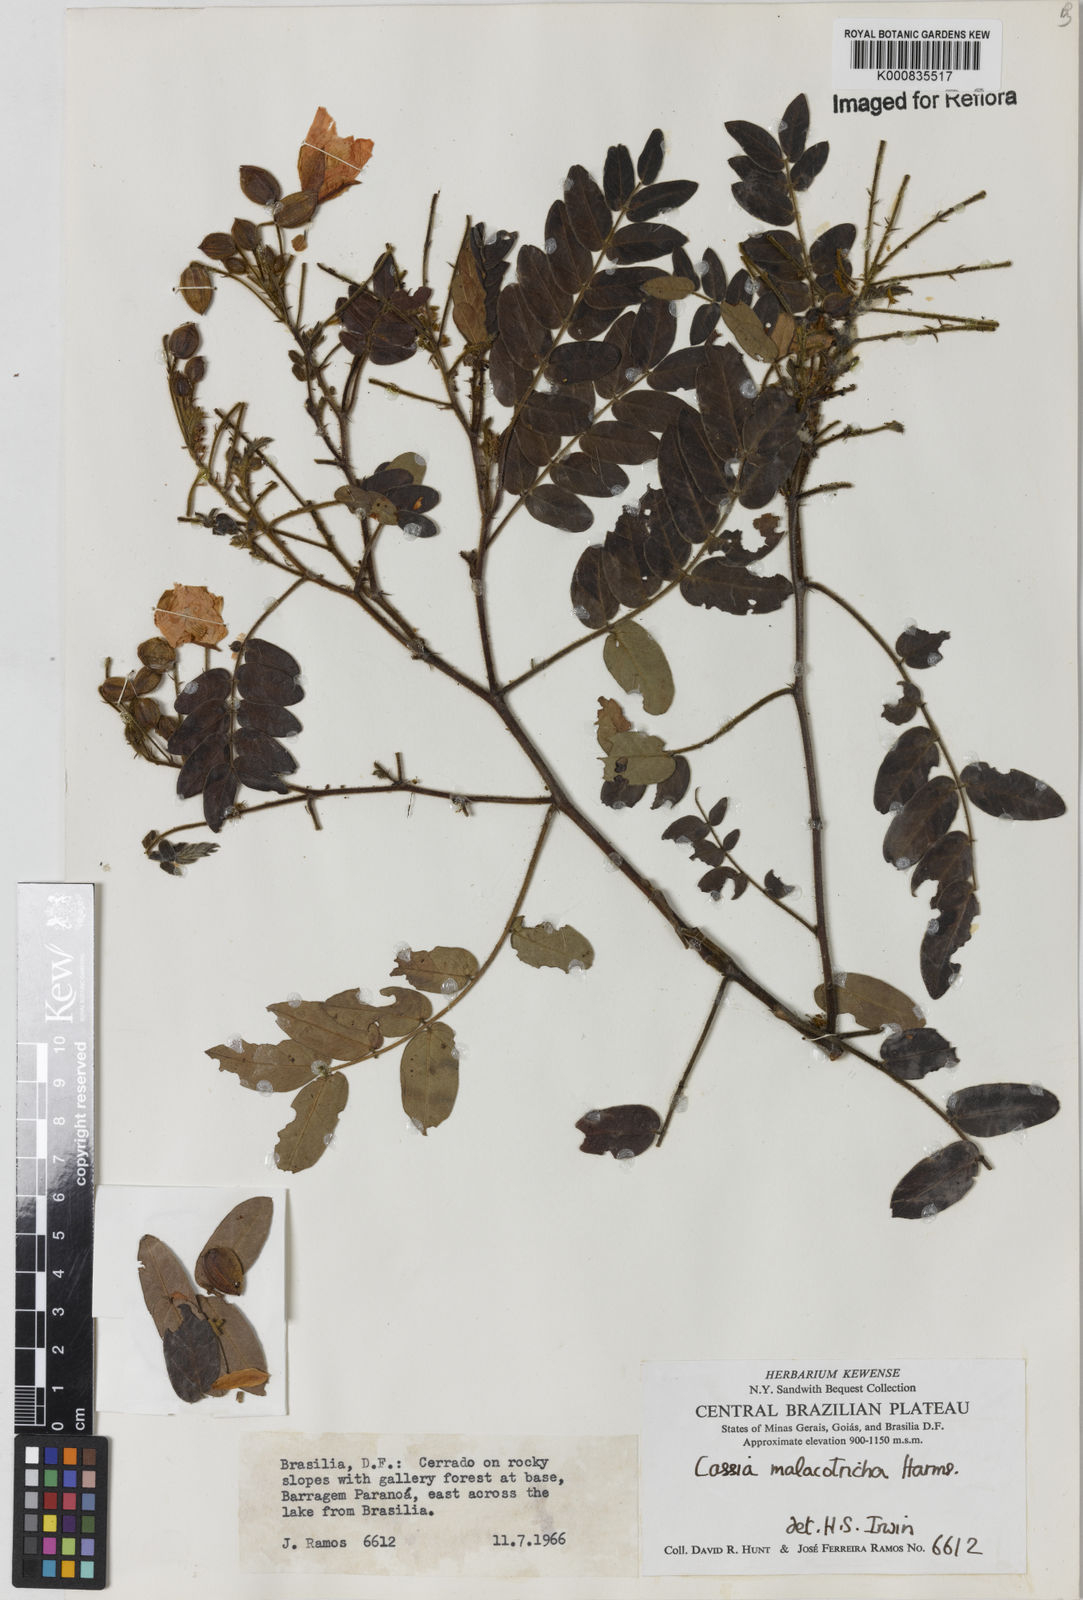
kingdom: Plantae
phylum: Tracheophyta
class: Magnoliopsida
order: Fabales
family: Fabaceae
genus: Chamaecrista
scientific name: Chamaecrista machaeriifolia
